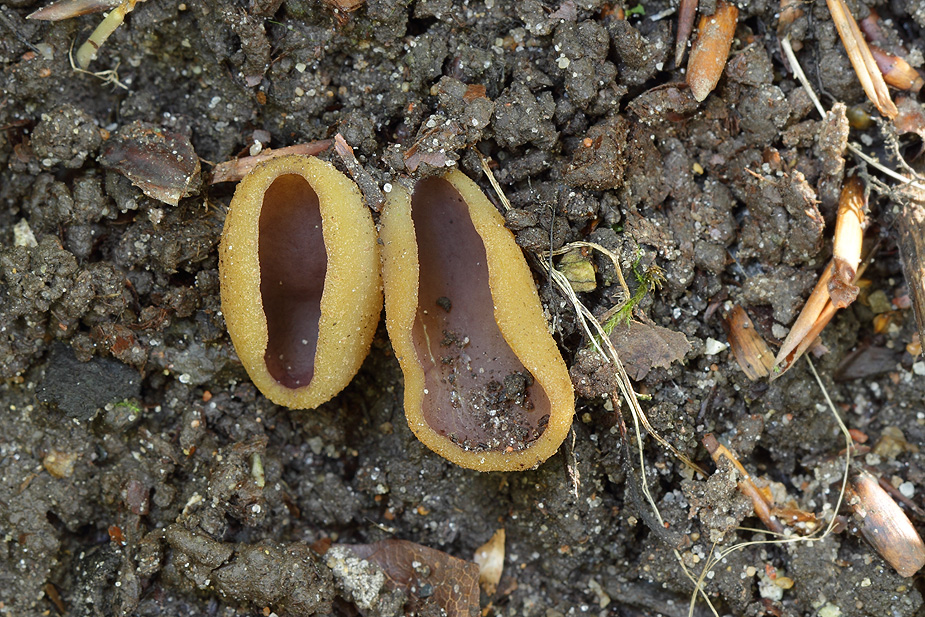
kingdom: Fungi
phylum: Ascomycota
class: Pezizomycetes
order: Pezizales
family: Pezizaceae
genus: Paragalactinia
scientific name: Paragalactinia michelii
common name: gulkødet bægersvamp
